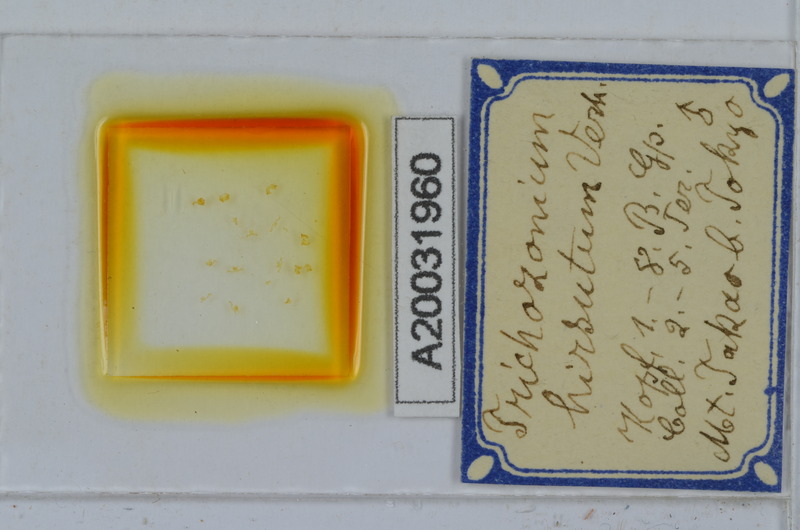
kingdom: Animalia
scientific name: Animalia
